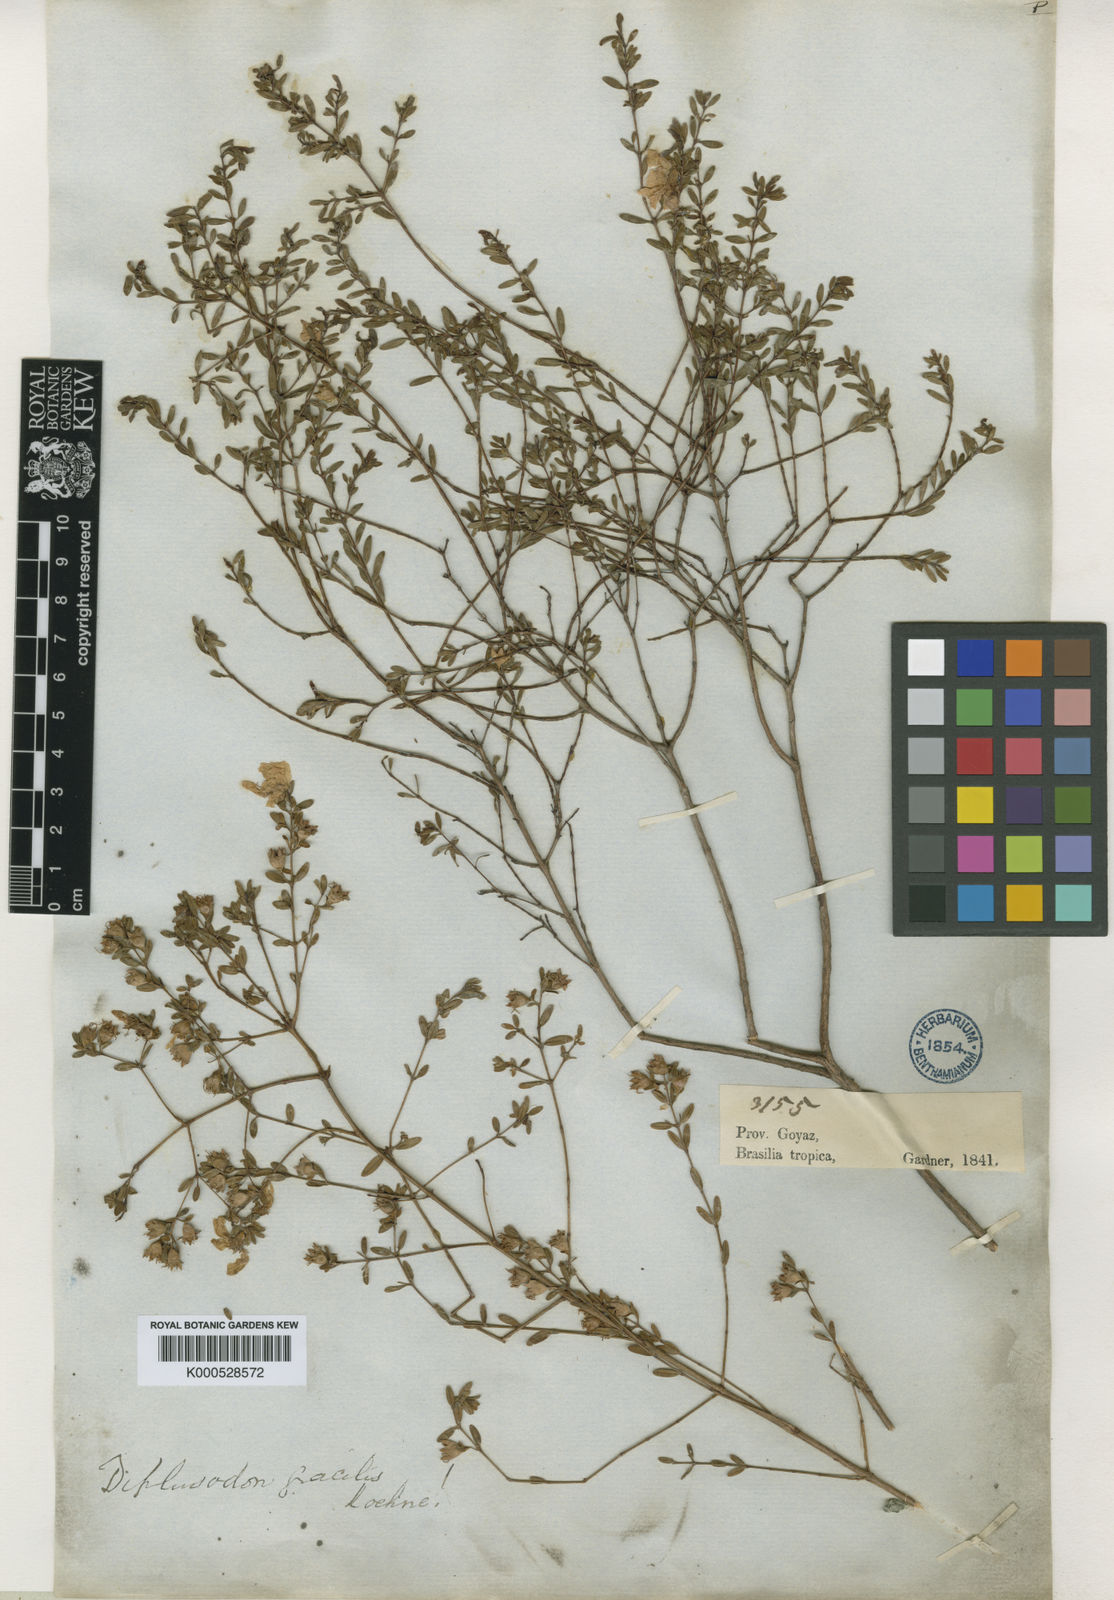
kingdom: Plantae
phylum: Tracheophyta
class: Magnoliopsida
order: Myrtales
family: Lythraceae
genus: Diplusodon
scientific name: Diplusodon gracilis
